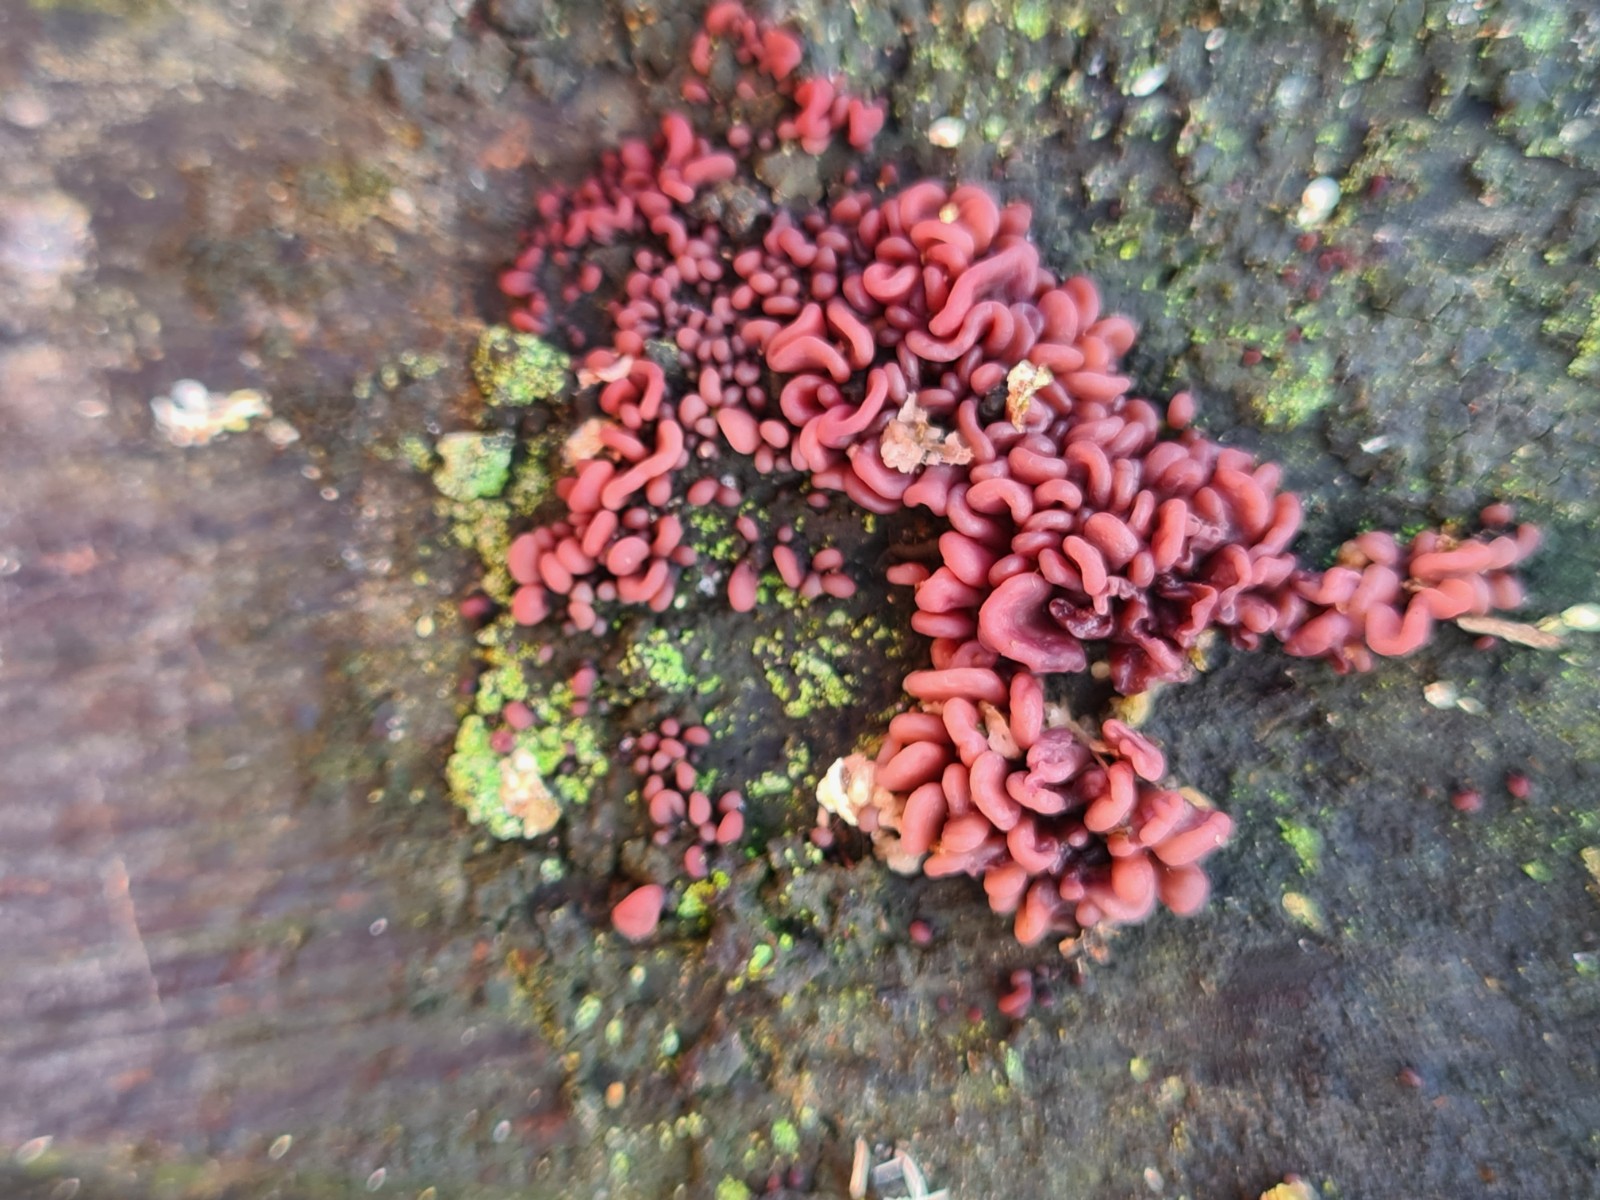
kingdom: Fungi
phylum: Ascomycota
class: Leotiomycetes
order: Helotiales
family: Gelatinodiscaceae
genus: Ascocoryne
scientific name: Ascocoryne sarcoides
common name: rødlilla sejskive
